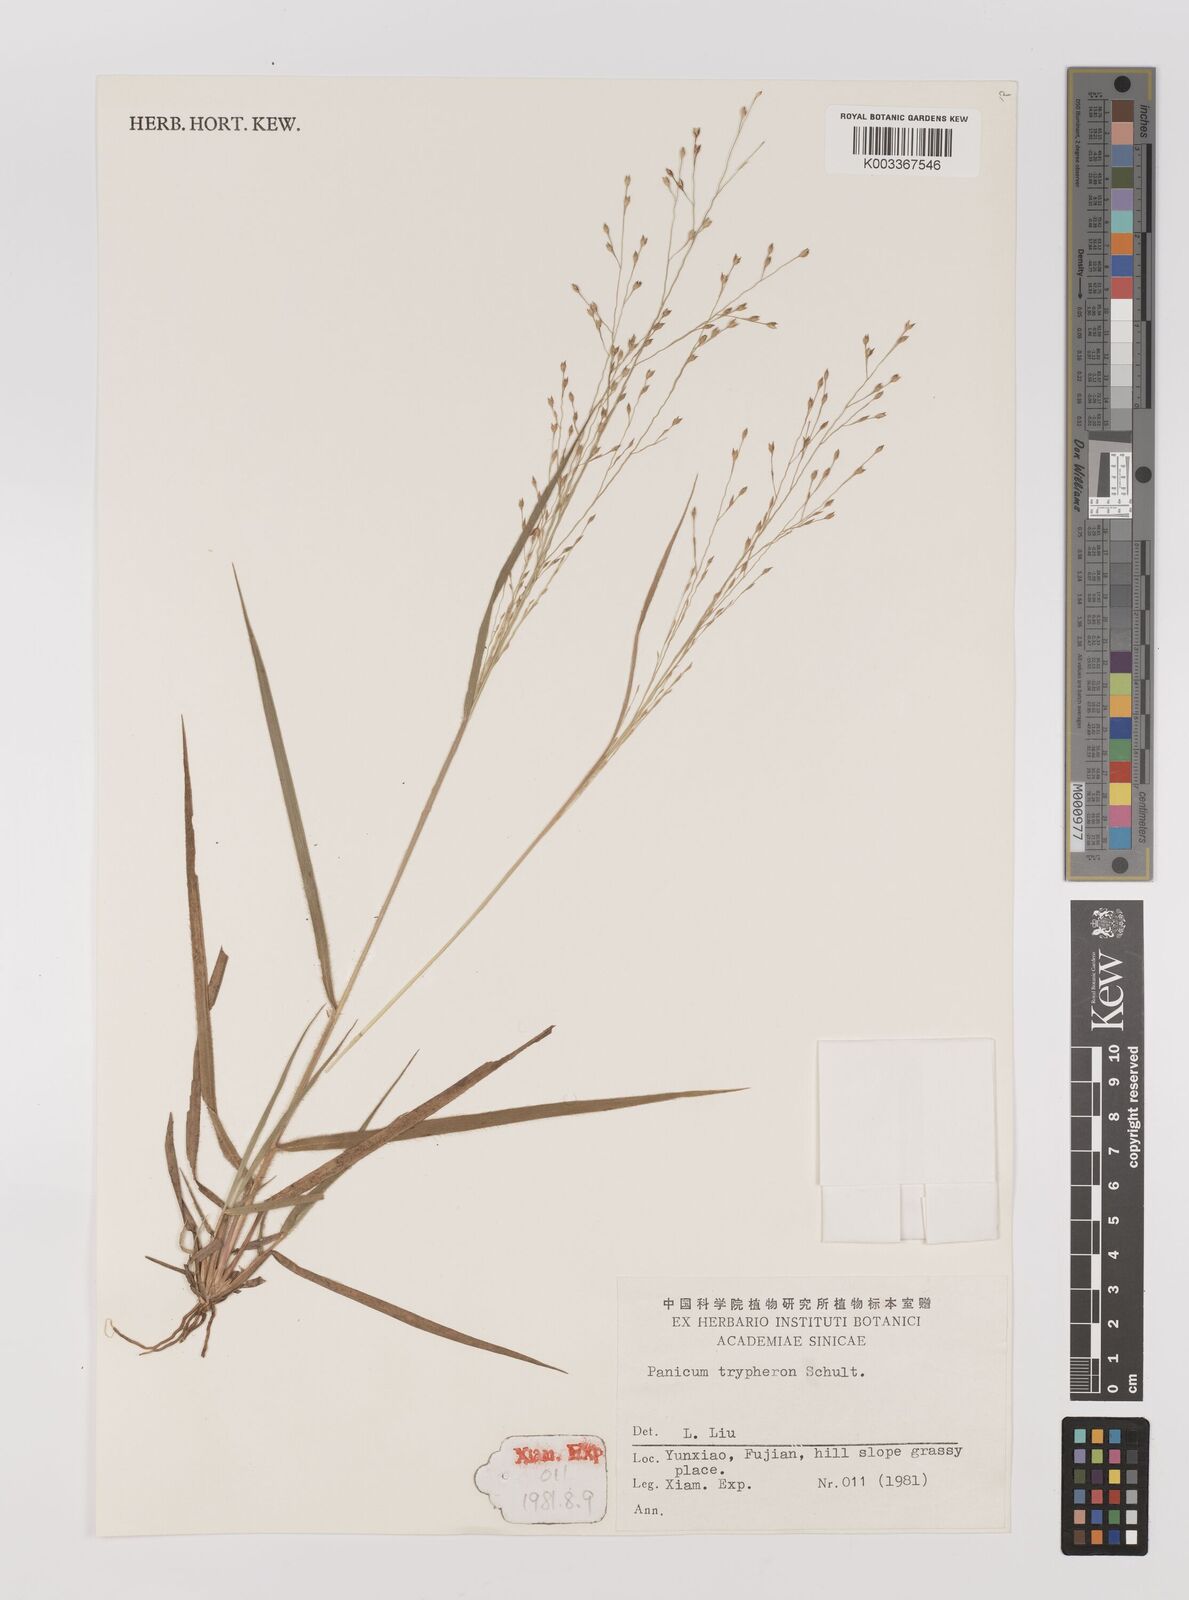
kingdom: Plantae
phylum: Tracheophyta
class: Liliopsida
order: Poales
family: Poaceae
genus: Panicum
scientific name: Panicum elegantissimum
